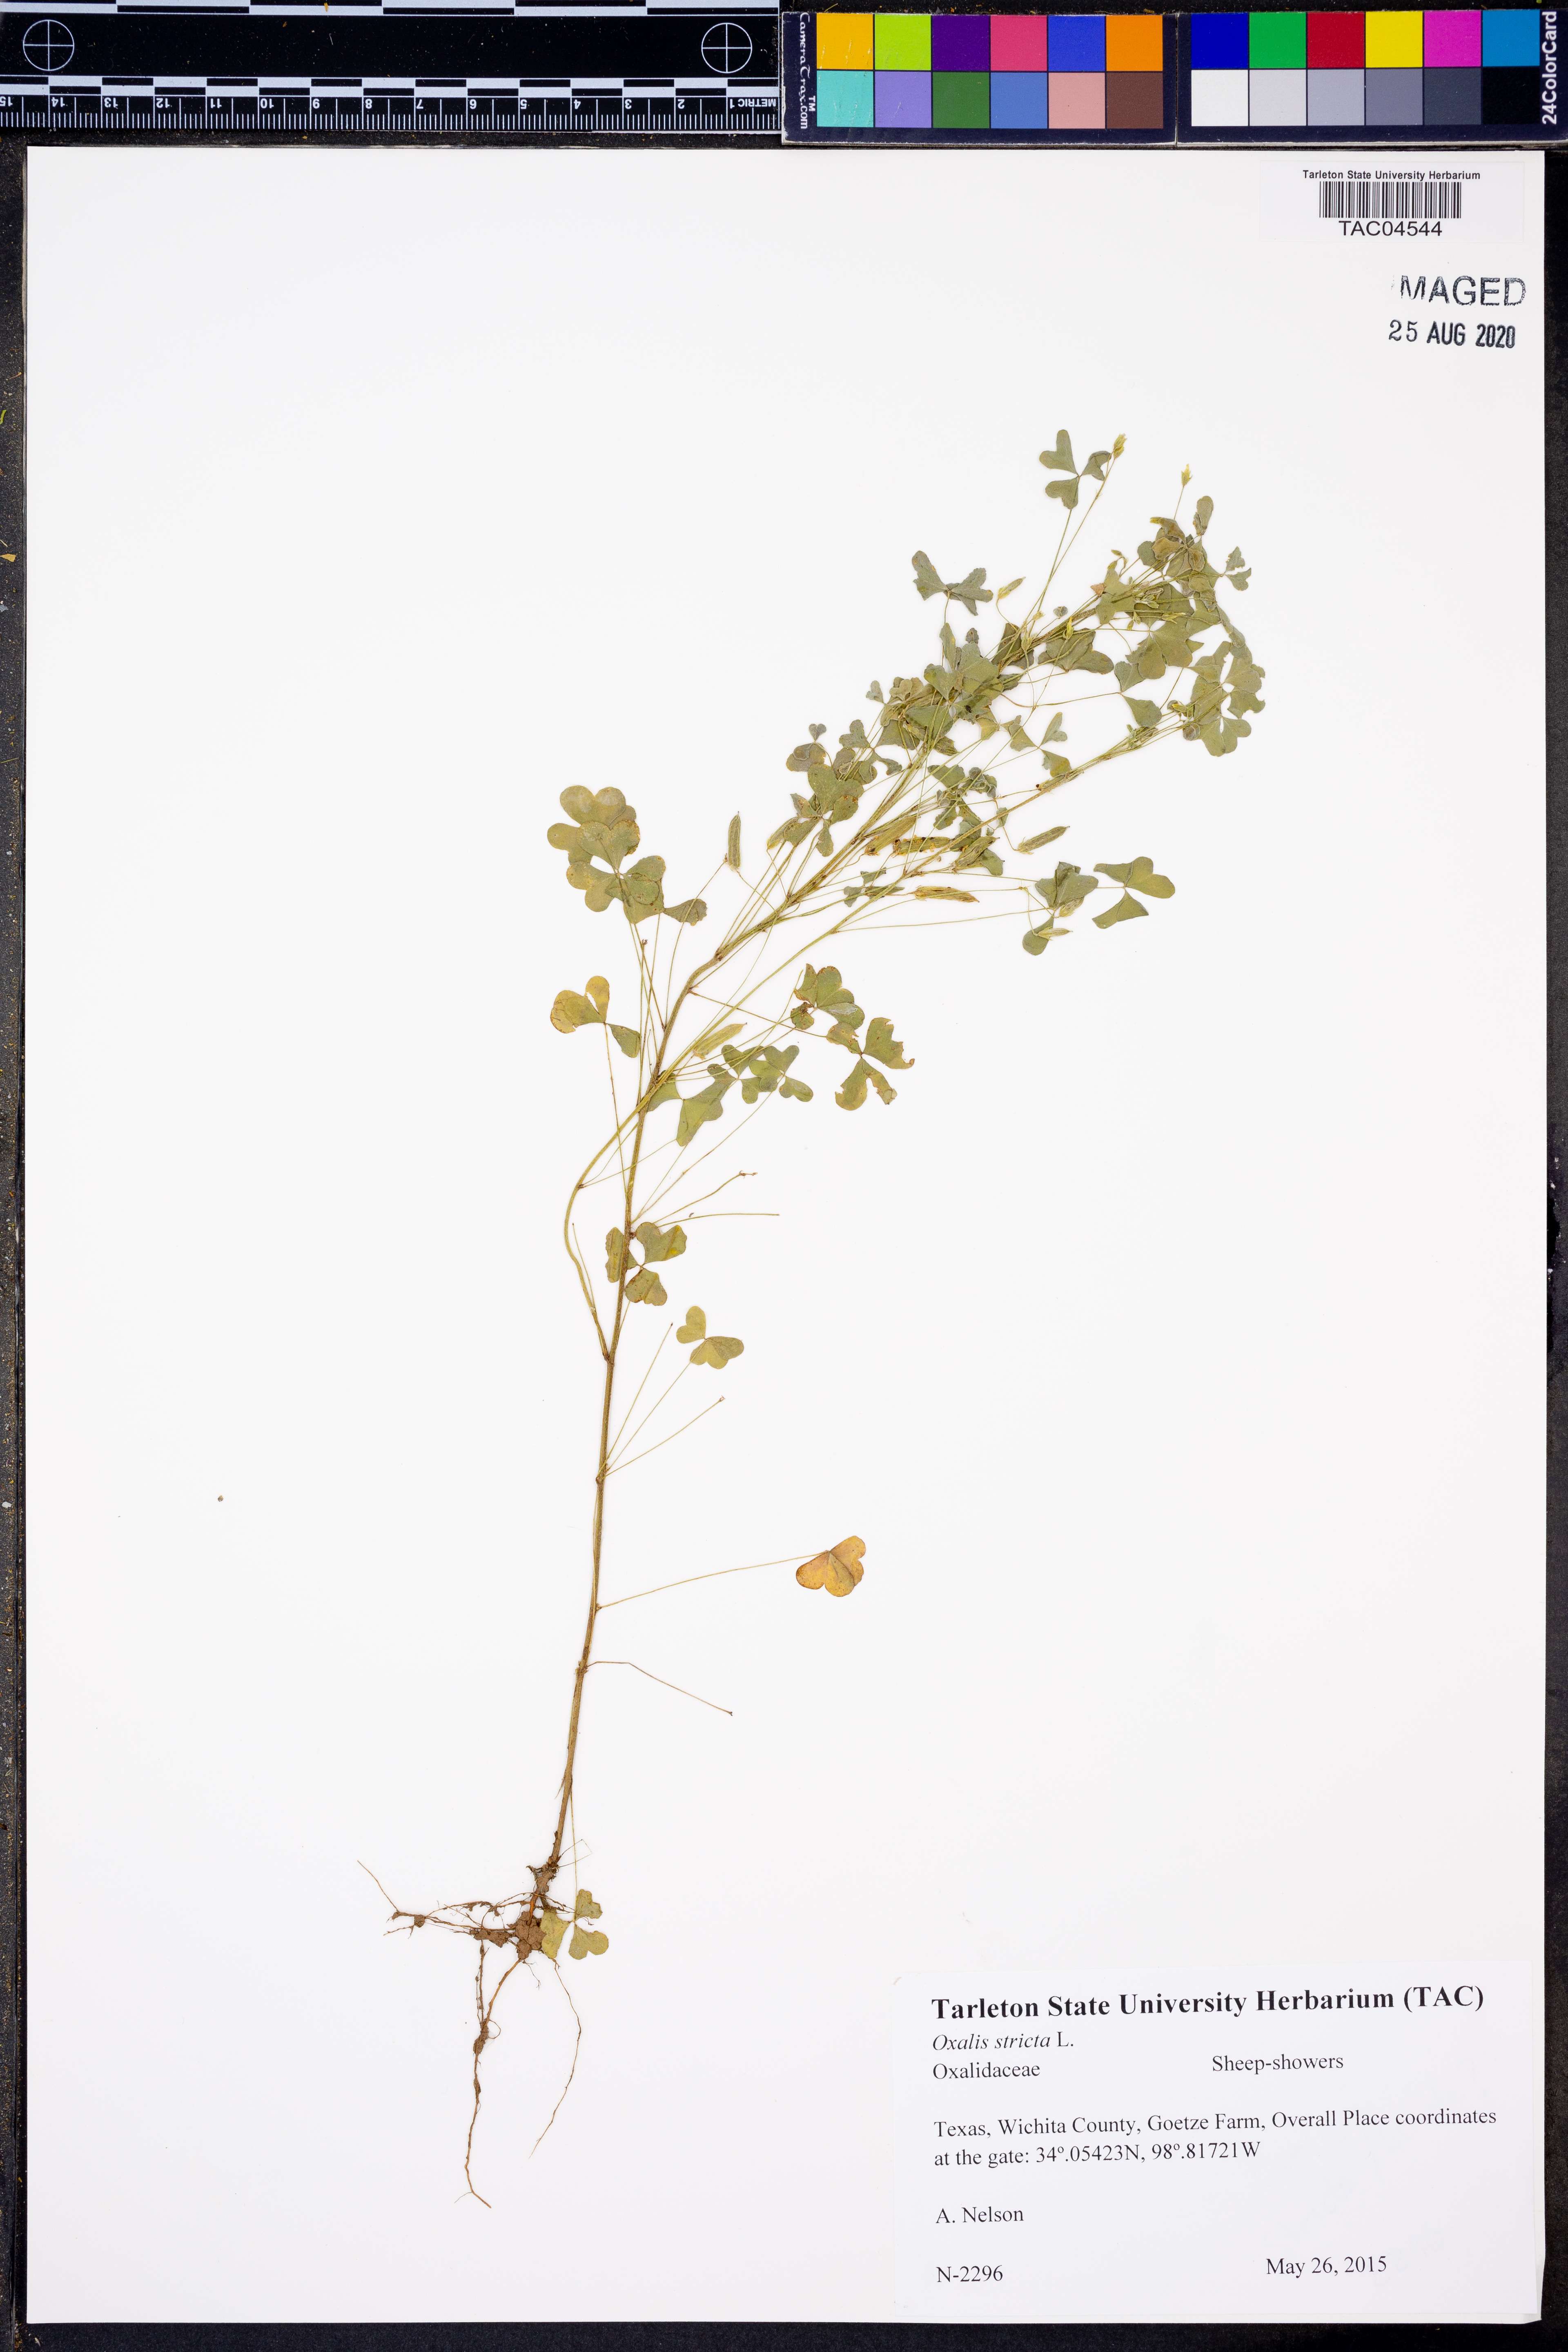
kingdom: Plantae
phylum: Tracheophyta
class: Magnoliopsida
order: Oxalidales
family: Oxalidaceae
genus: Oxalis
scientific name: Oxalis stricta
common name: Upright yellow-sorrel
